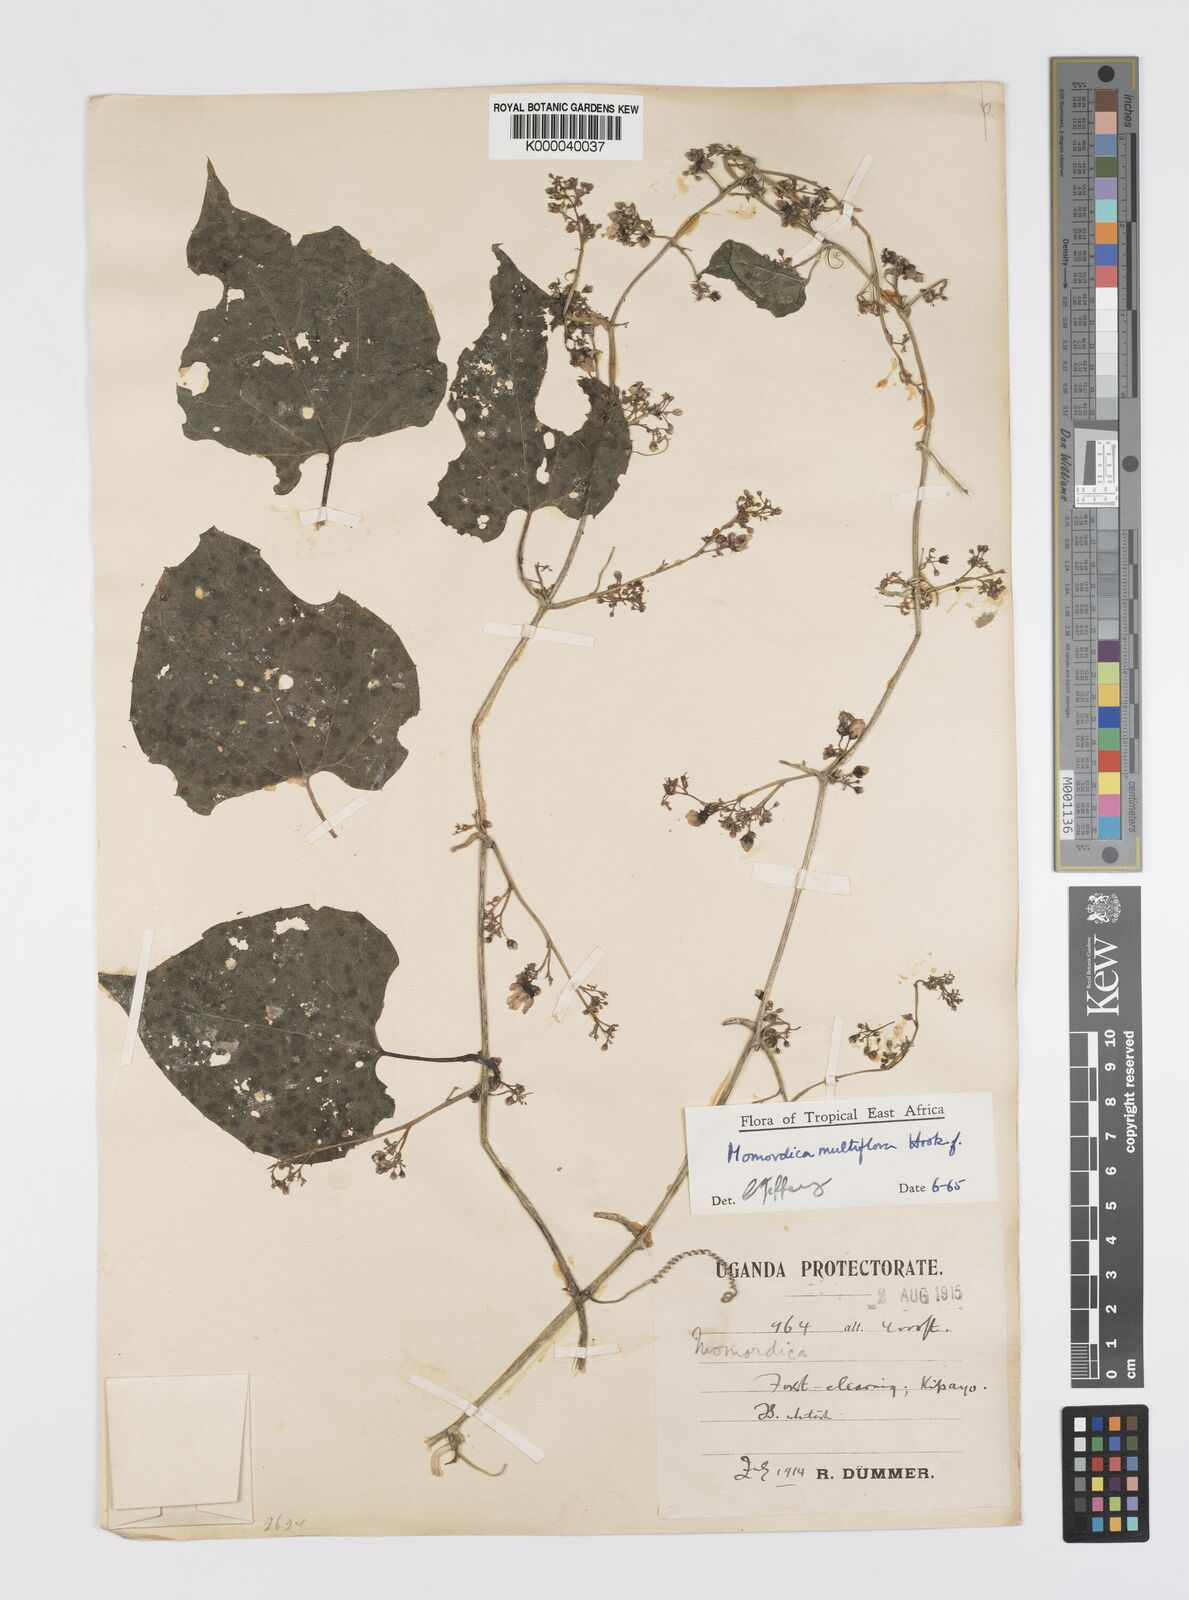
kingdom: Plantae
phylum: Tracheophyta
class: Magnoliopsida
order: Cucurbitales
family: Cucurbitaceae
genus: Momordica
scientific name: Momordica multiflora
